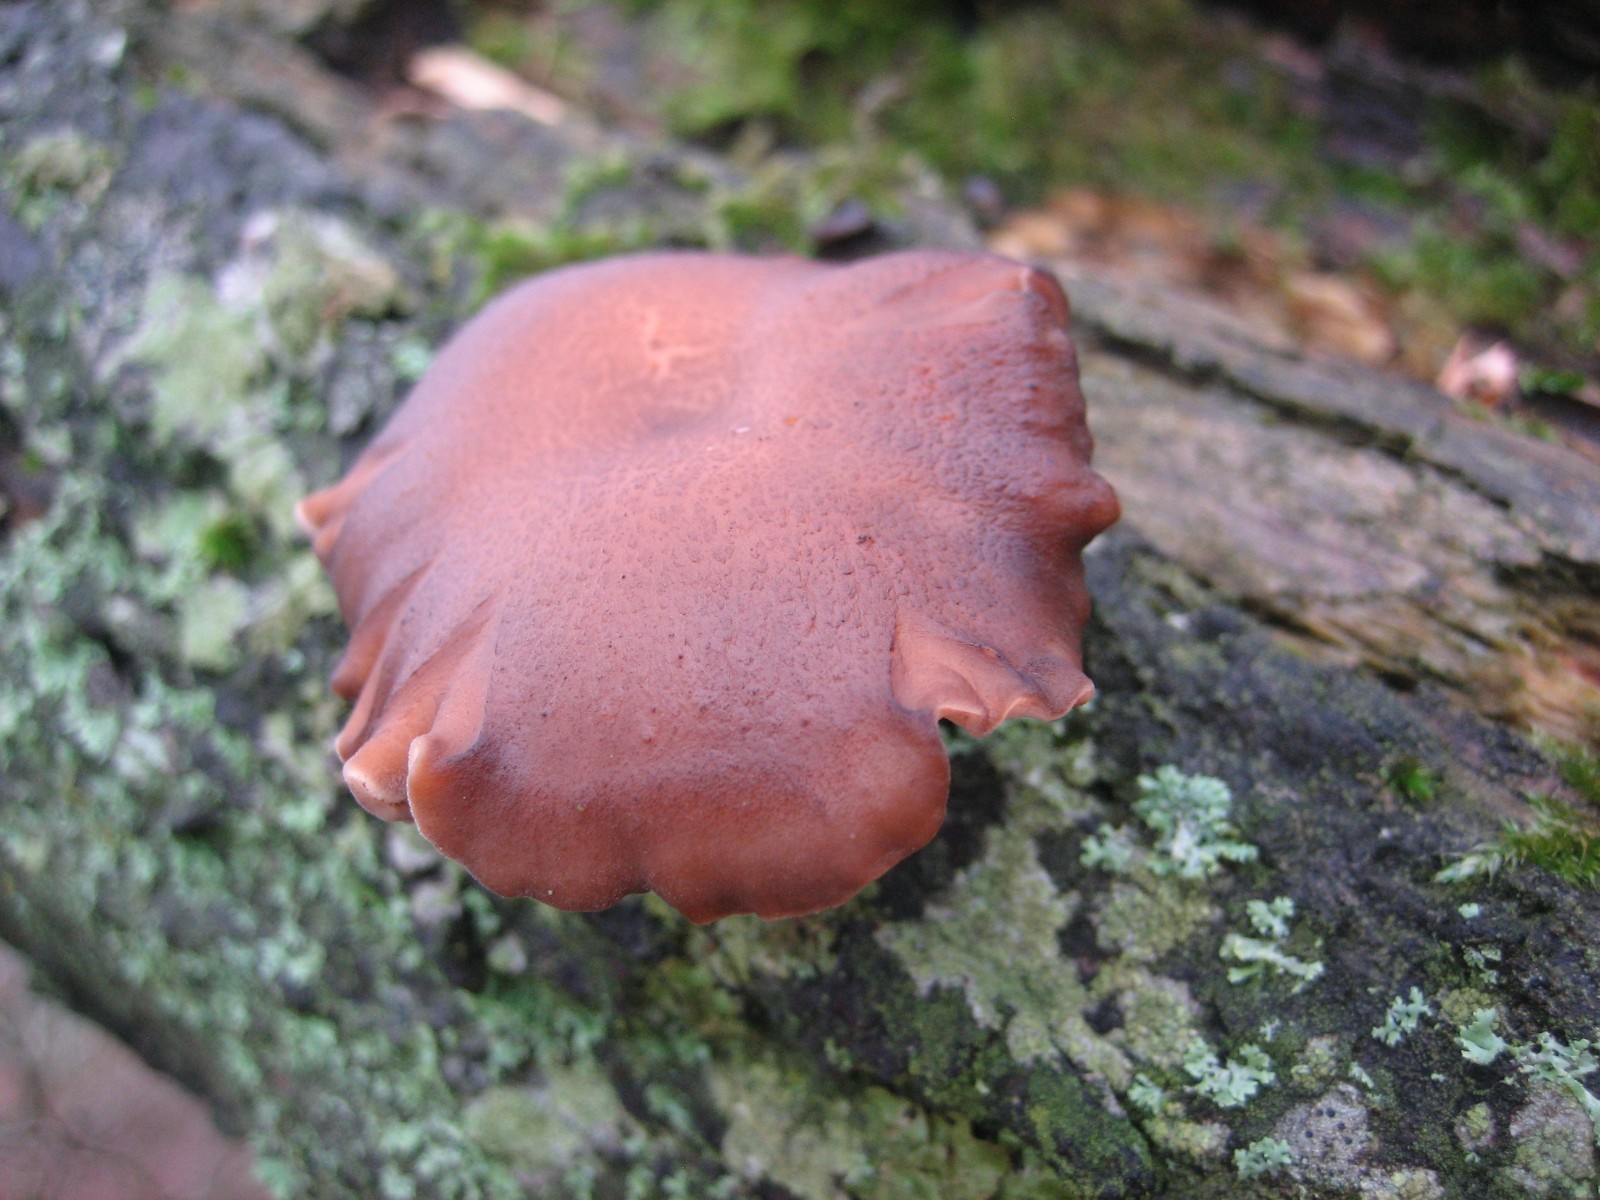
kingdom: Fungi
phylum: Basidiomycota
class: Agaricomycetes
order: Polyporales
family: Polyporaceae
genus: Lentinus
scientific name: Lentinus brumalis
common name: vinter-stilkporesvamp
